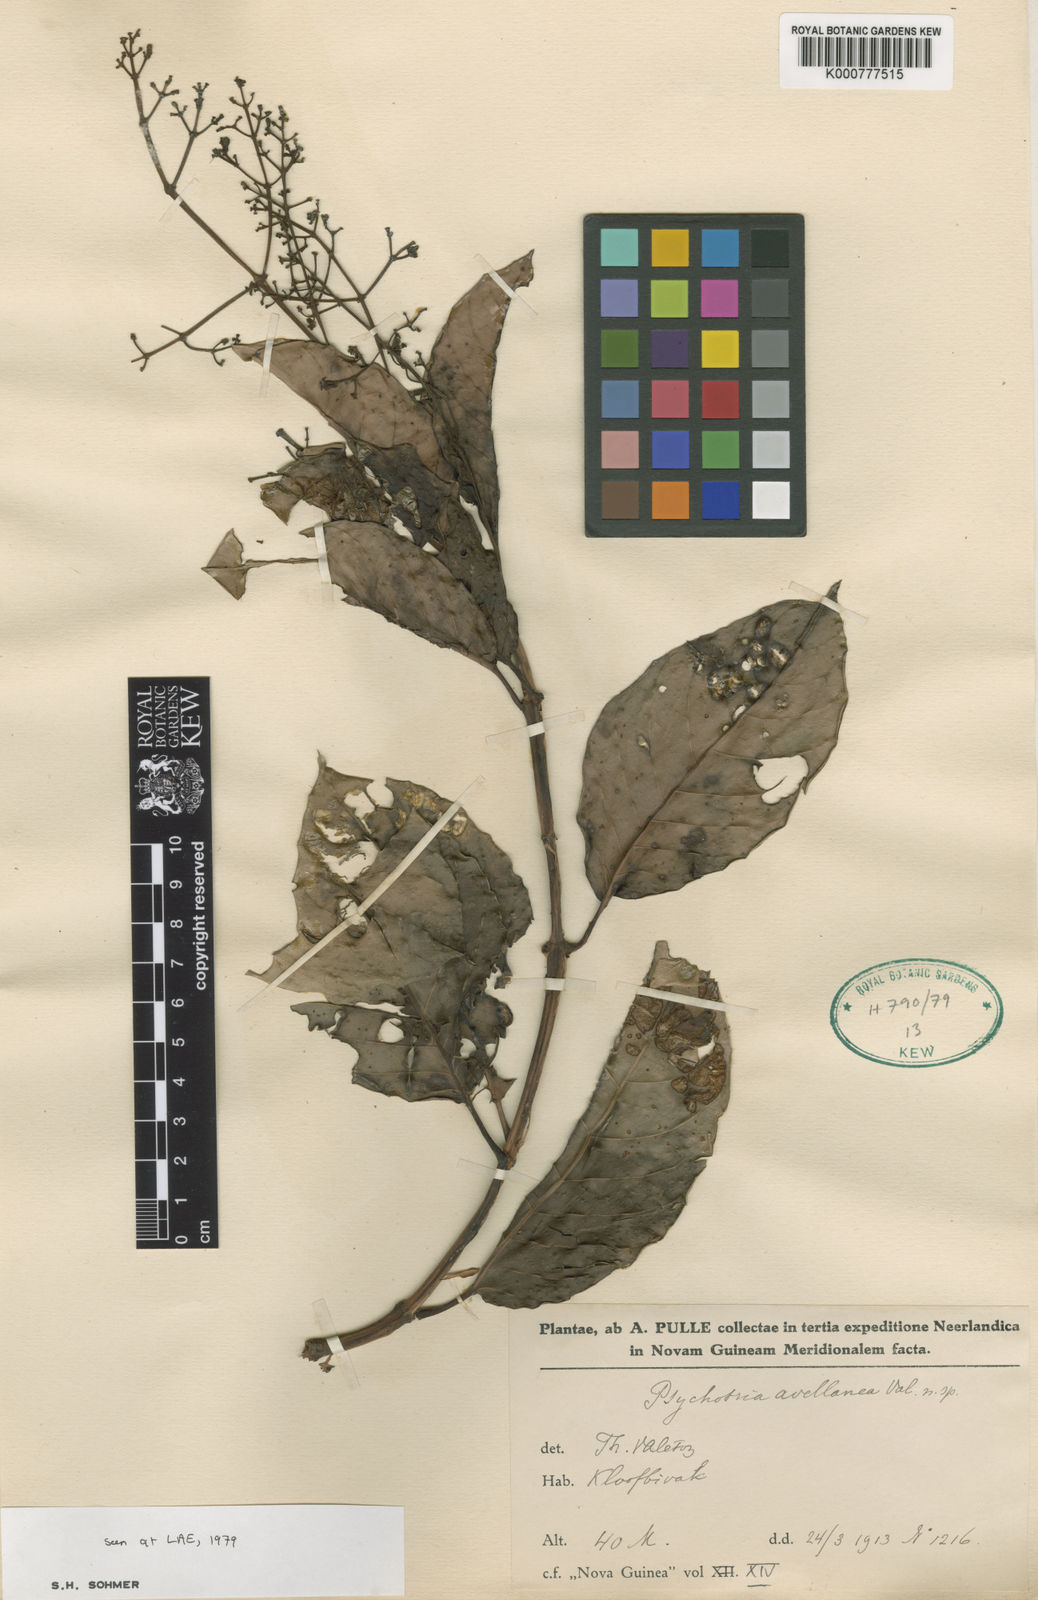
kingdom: Plantae
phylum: Tracheophyta
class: Magnoliopsida
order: Gentianales
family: Rubiaceae
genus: Psychotria
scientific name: Psychotria
